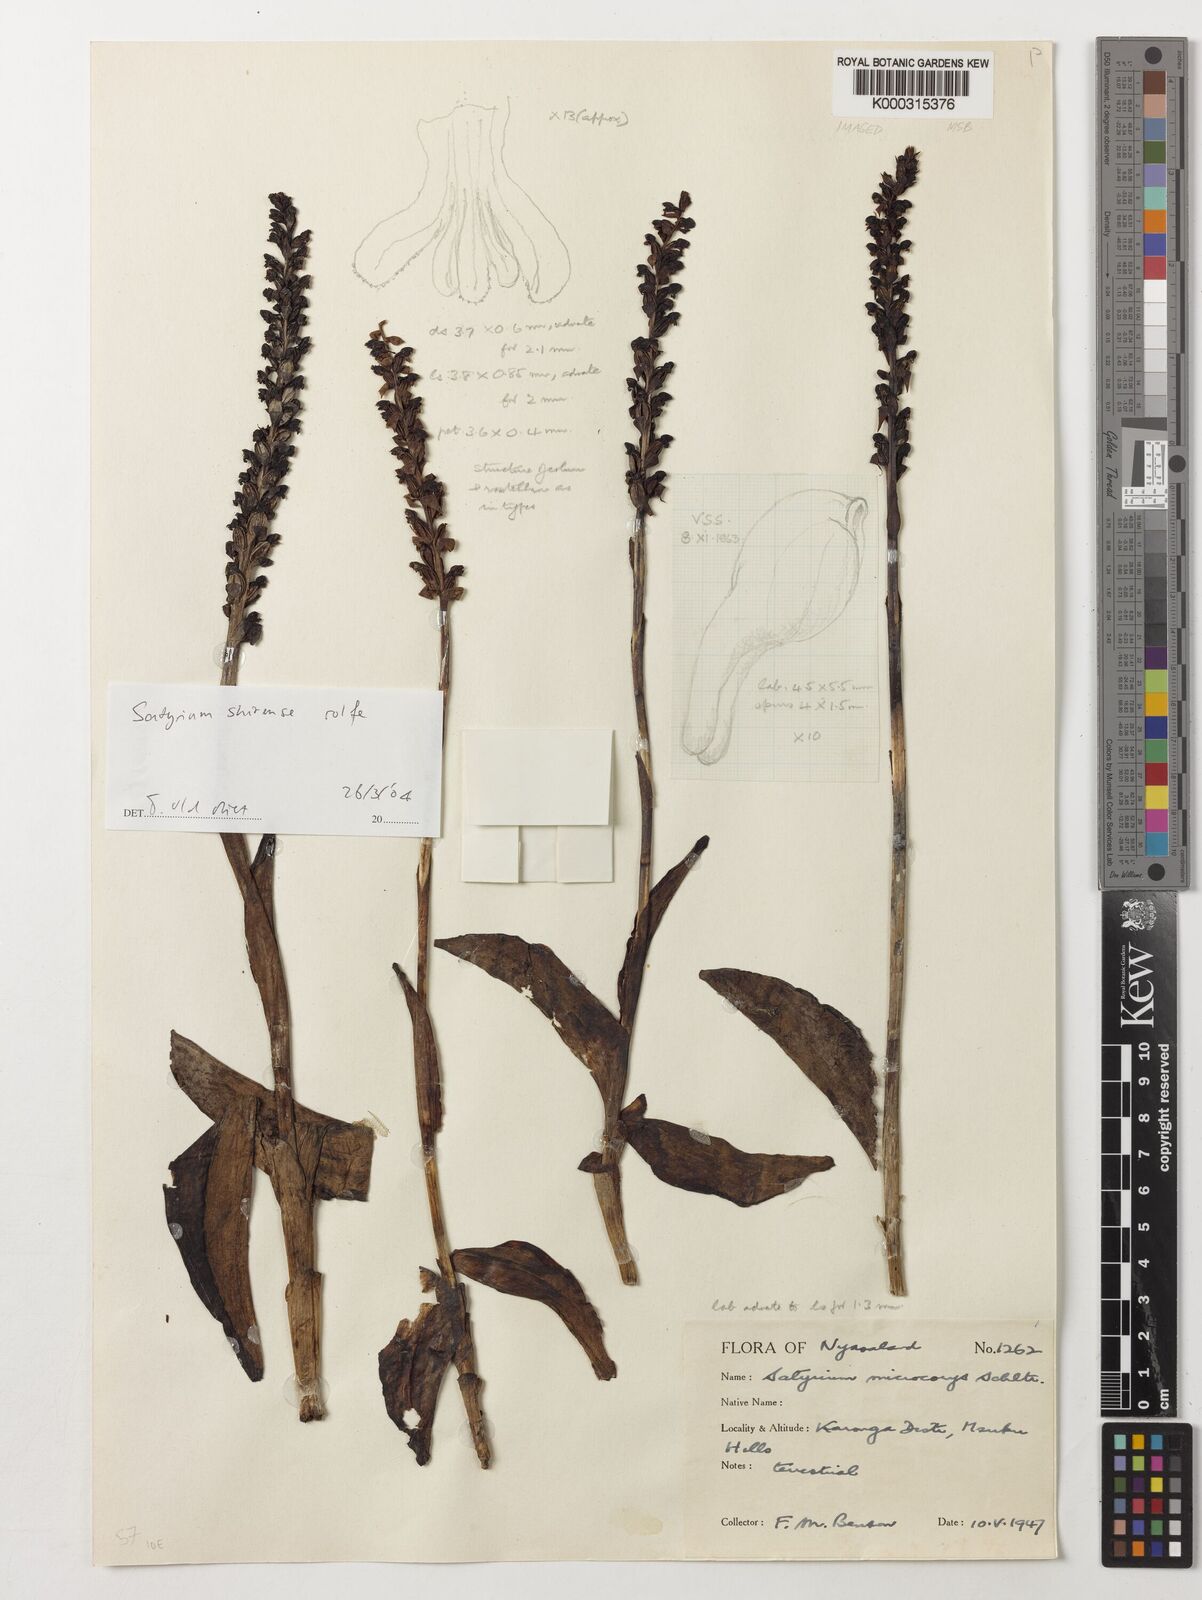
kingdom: Plantae
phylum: Tracheophyta
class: Liliopsida
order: Asparagales
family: Orchidaceae
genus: Satyrium
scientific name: Satyrium shirense
